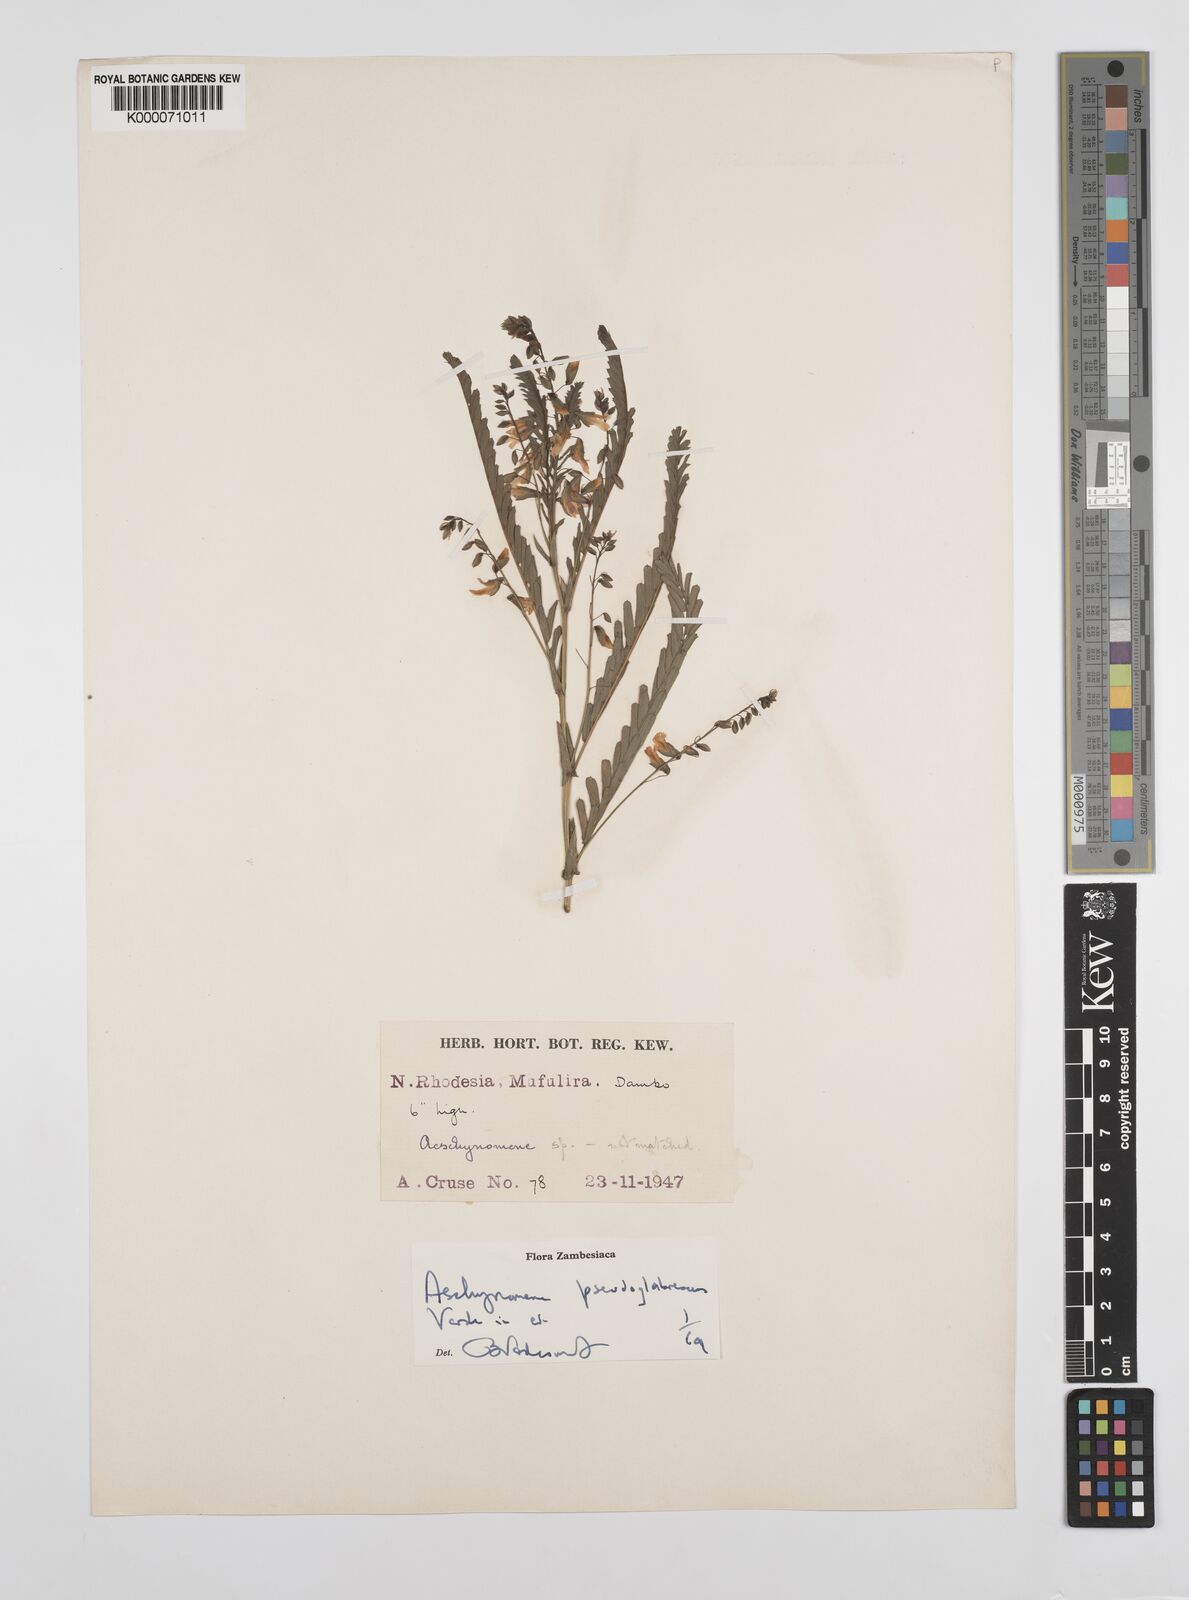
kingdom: Plantae
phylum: Tracheophyta
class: Magnoliopsida
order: Fabales
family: Fabaceae
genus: Aeschynomene
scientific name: Aeschynomene pseudoglabrescens
